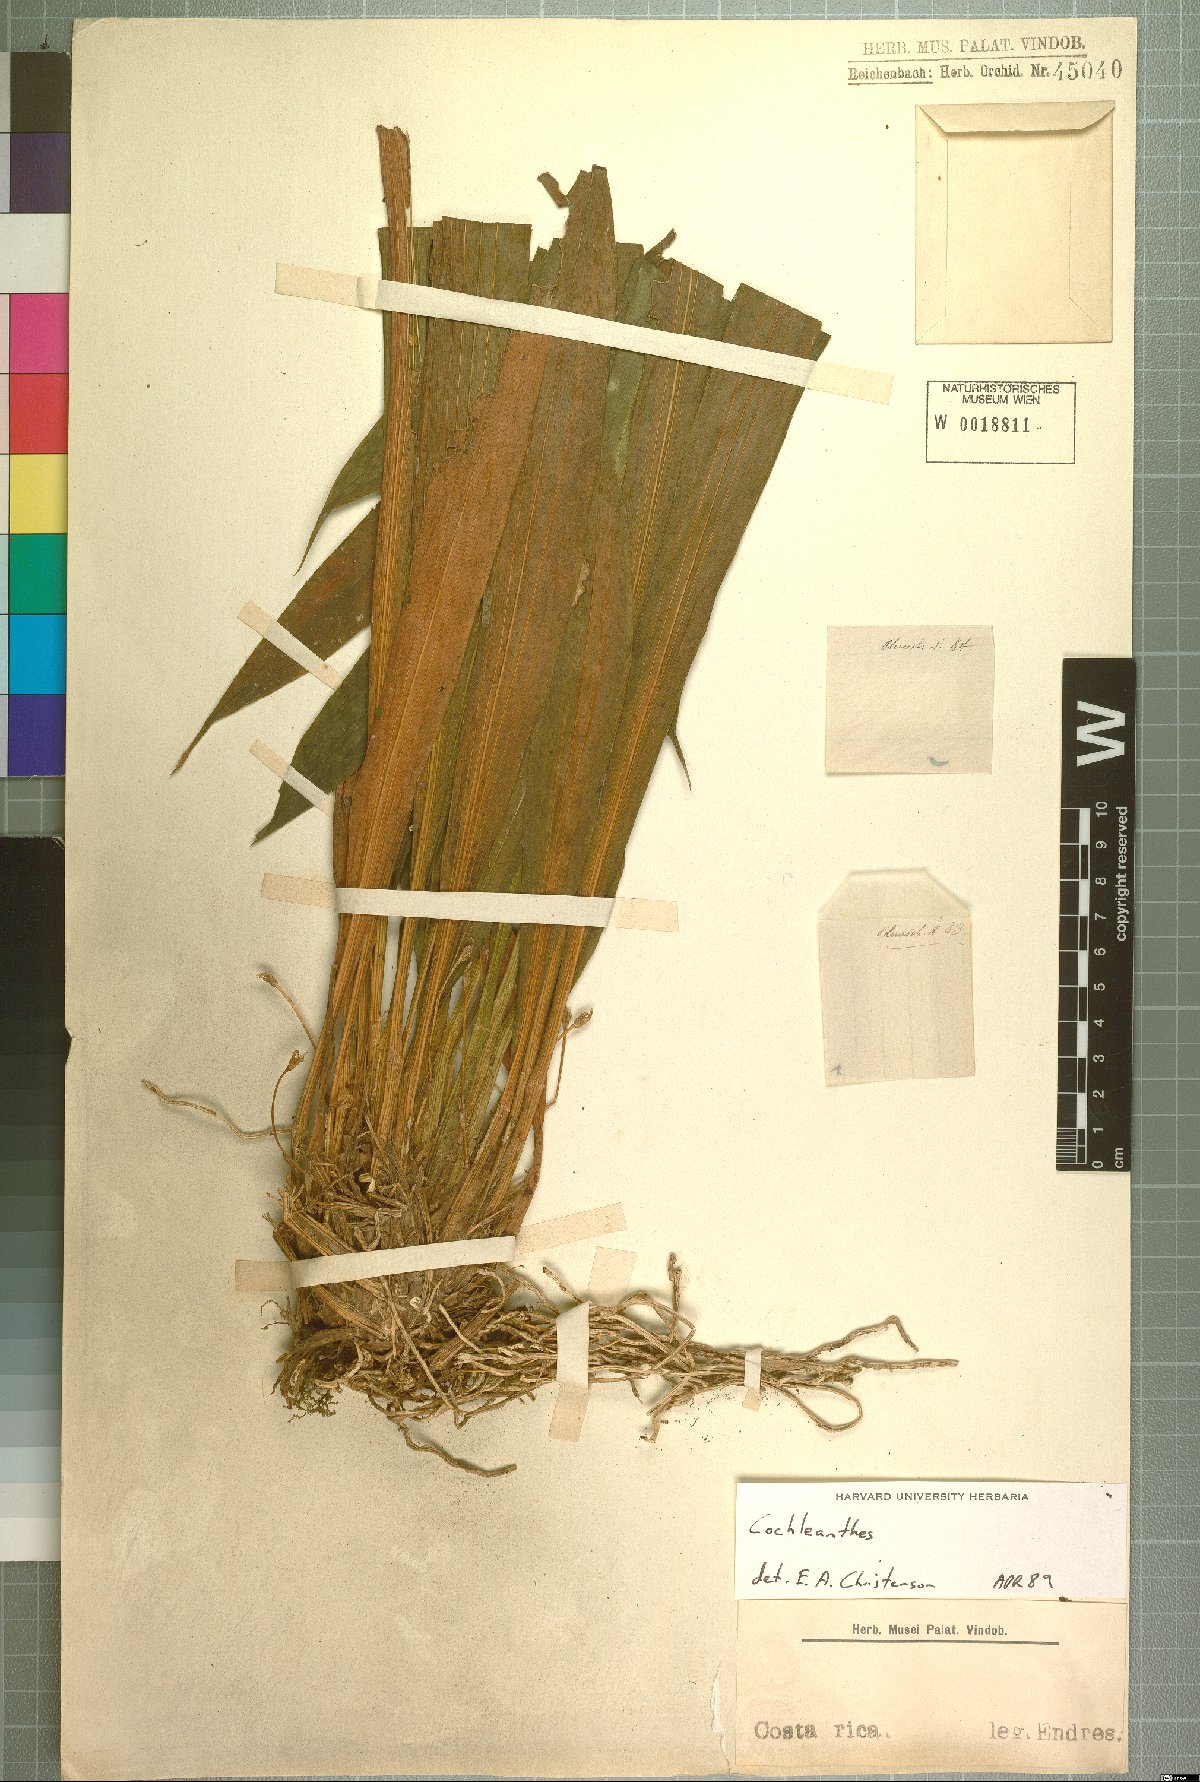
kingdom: Plantae
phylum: Tracheophyta
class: Liliopsida
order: Asparagales
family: Orchidaceae
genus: Cochleanthes
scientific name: Cochleanthes
